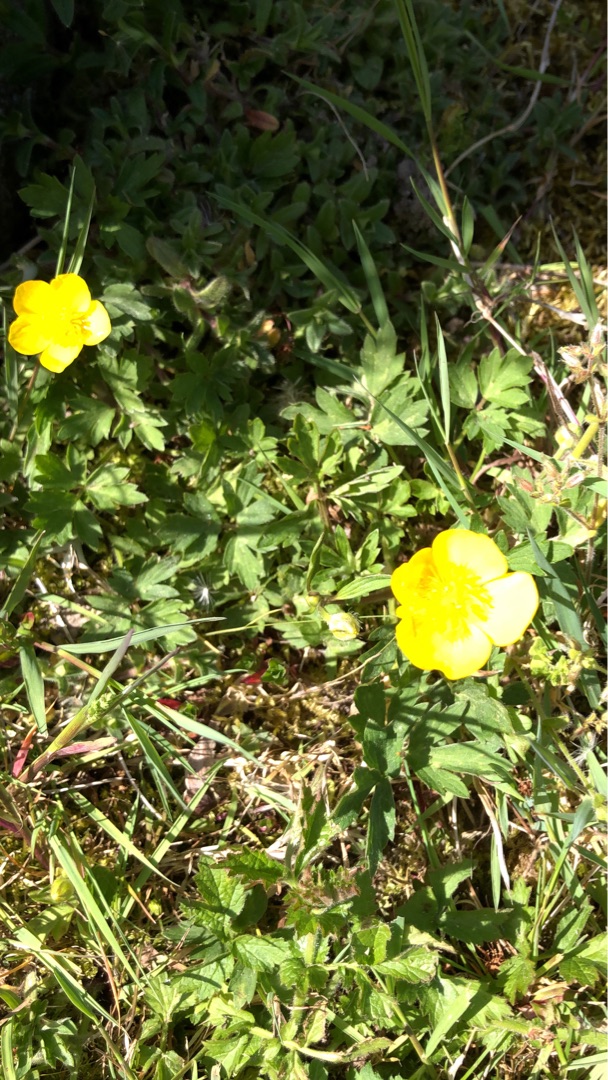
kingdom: Plantae
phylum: Tracheophyta
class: Magnoliopsida
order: Ranunculales
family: Ranunculaceae
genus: Ranunculus
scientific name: Ranunculus repens
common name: Lav ranunkel
